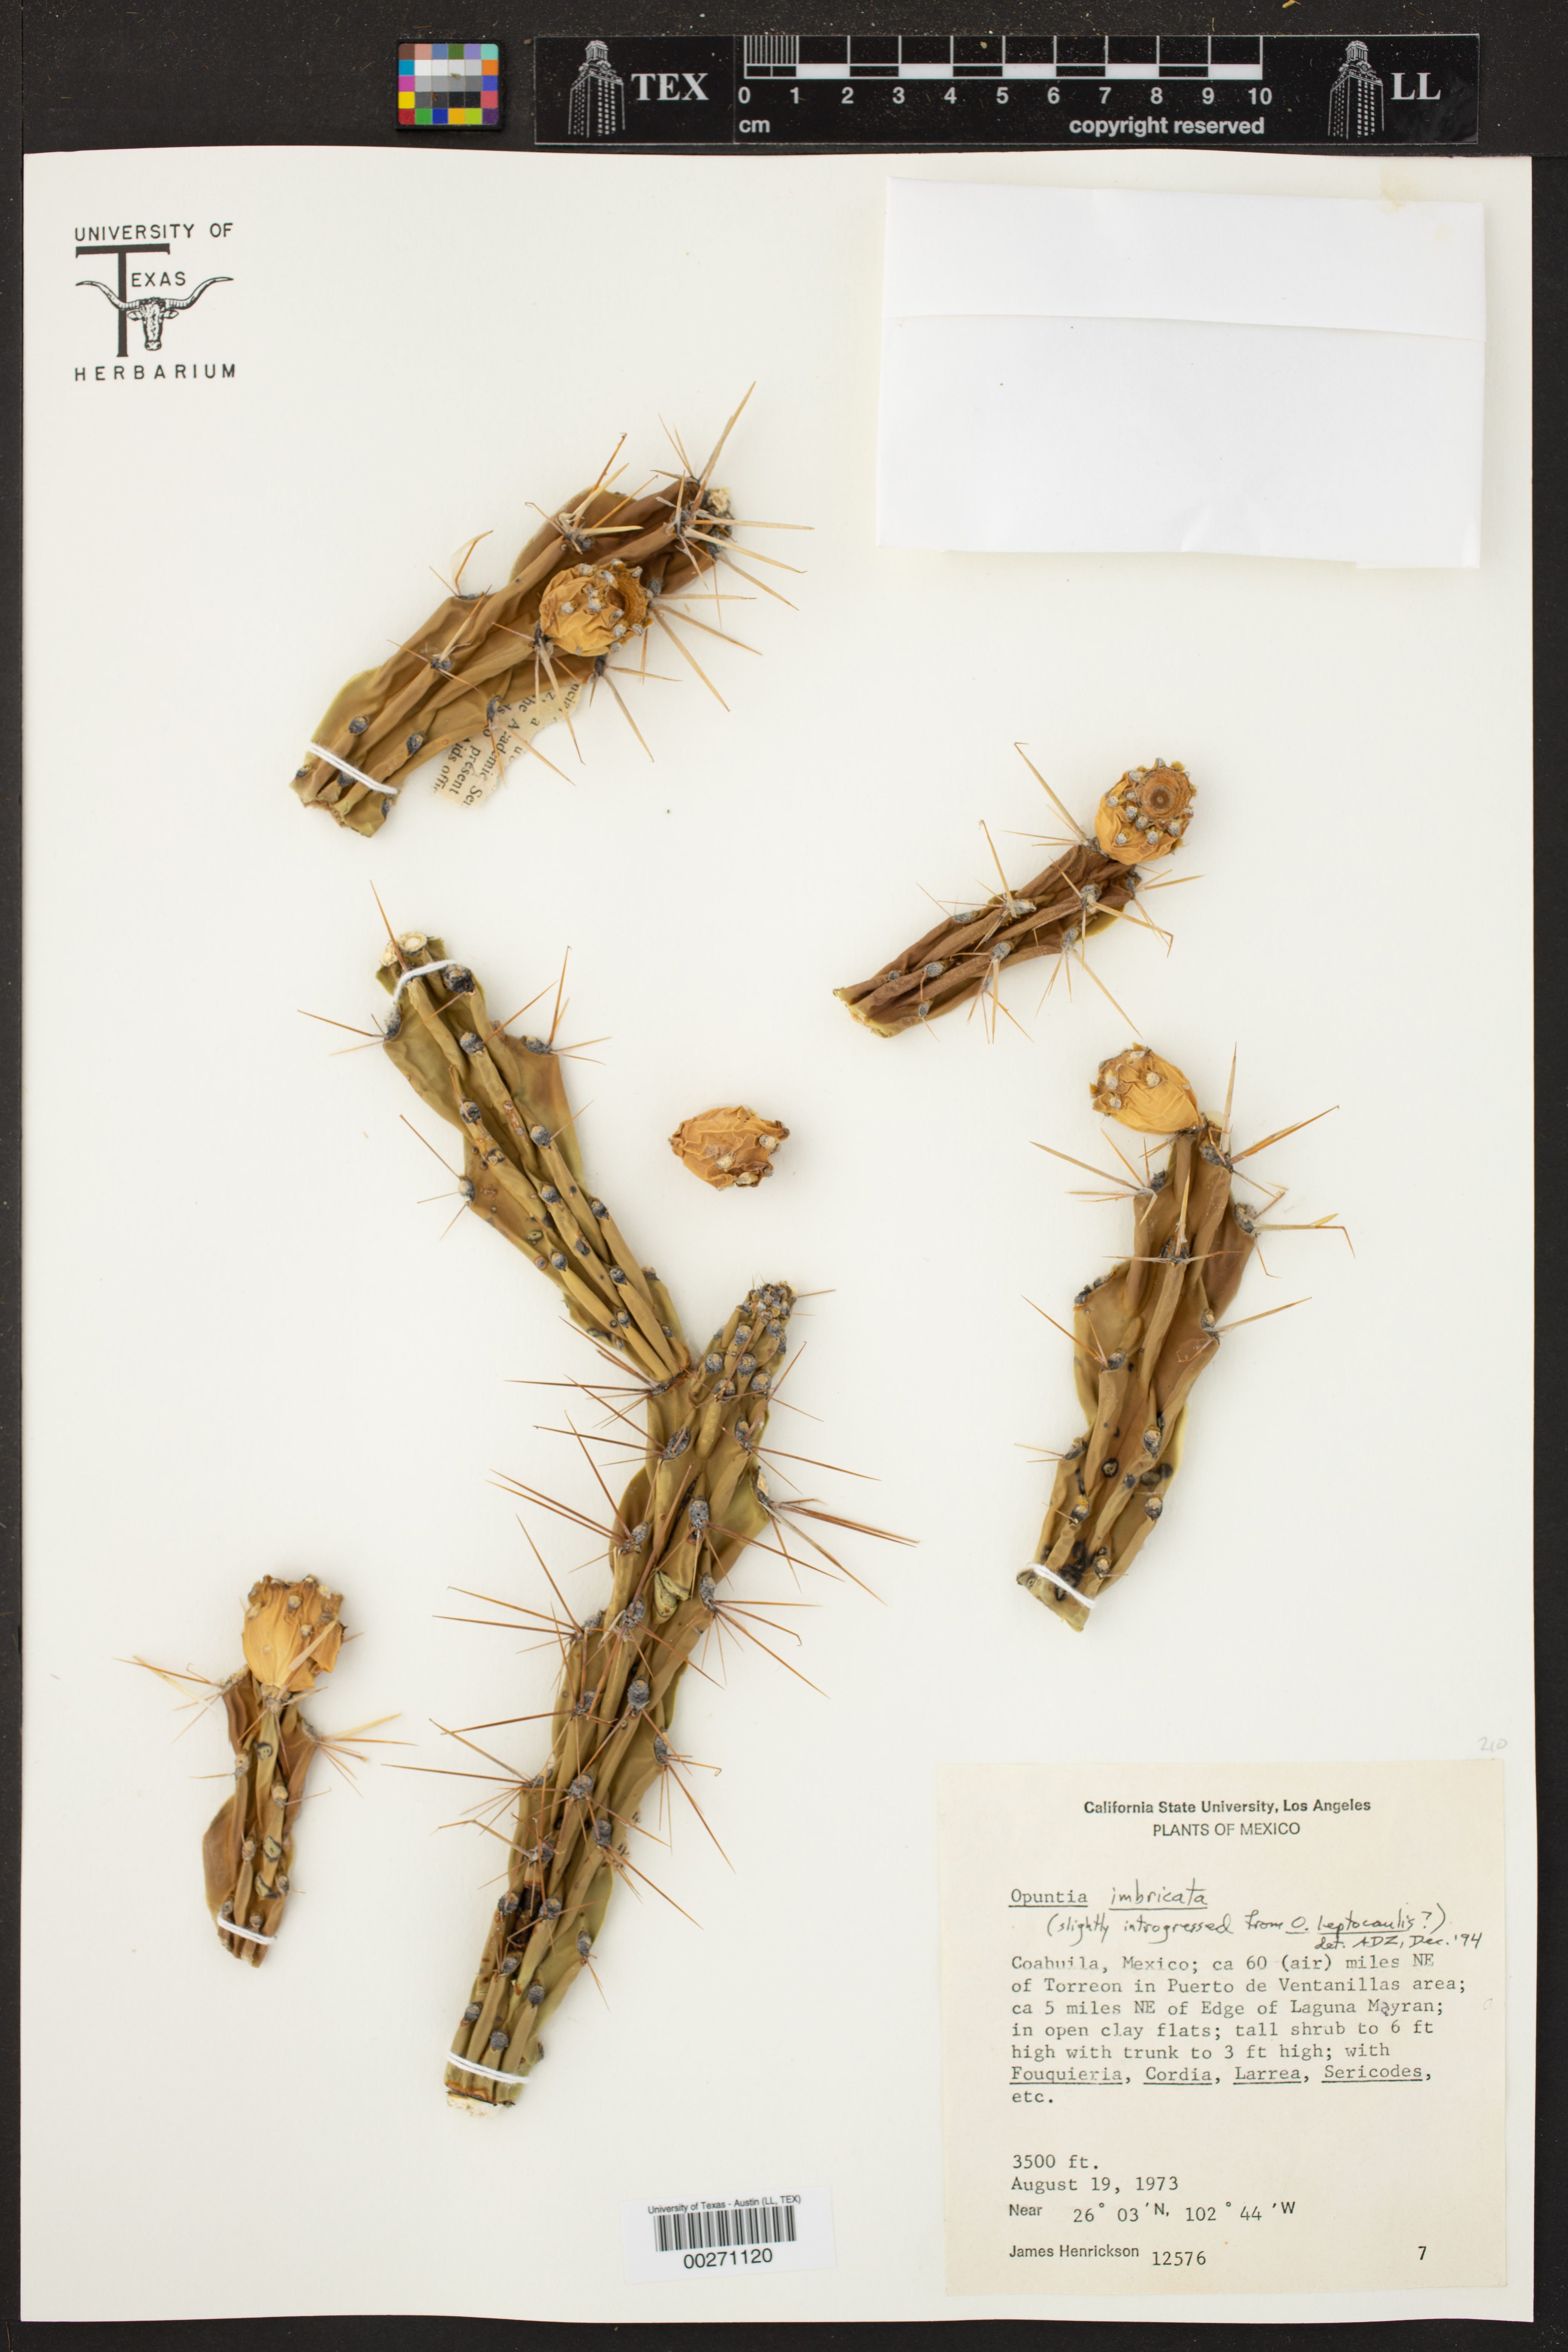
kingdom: Plantae
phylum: Tracheophyta
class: Magnoliopsida
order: Caryophyllales
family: Cactaceae
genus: Cylindropuntia
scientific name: Cylindropuntia
